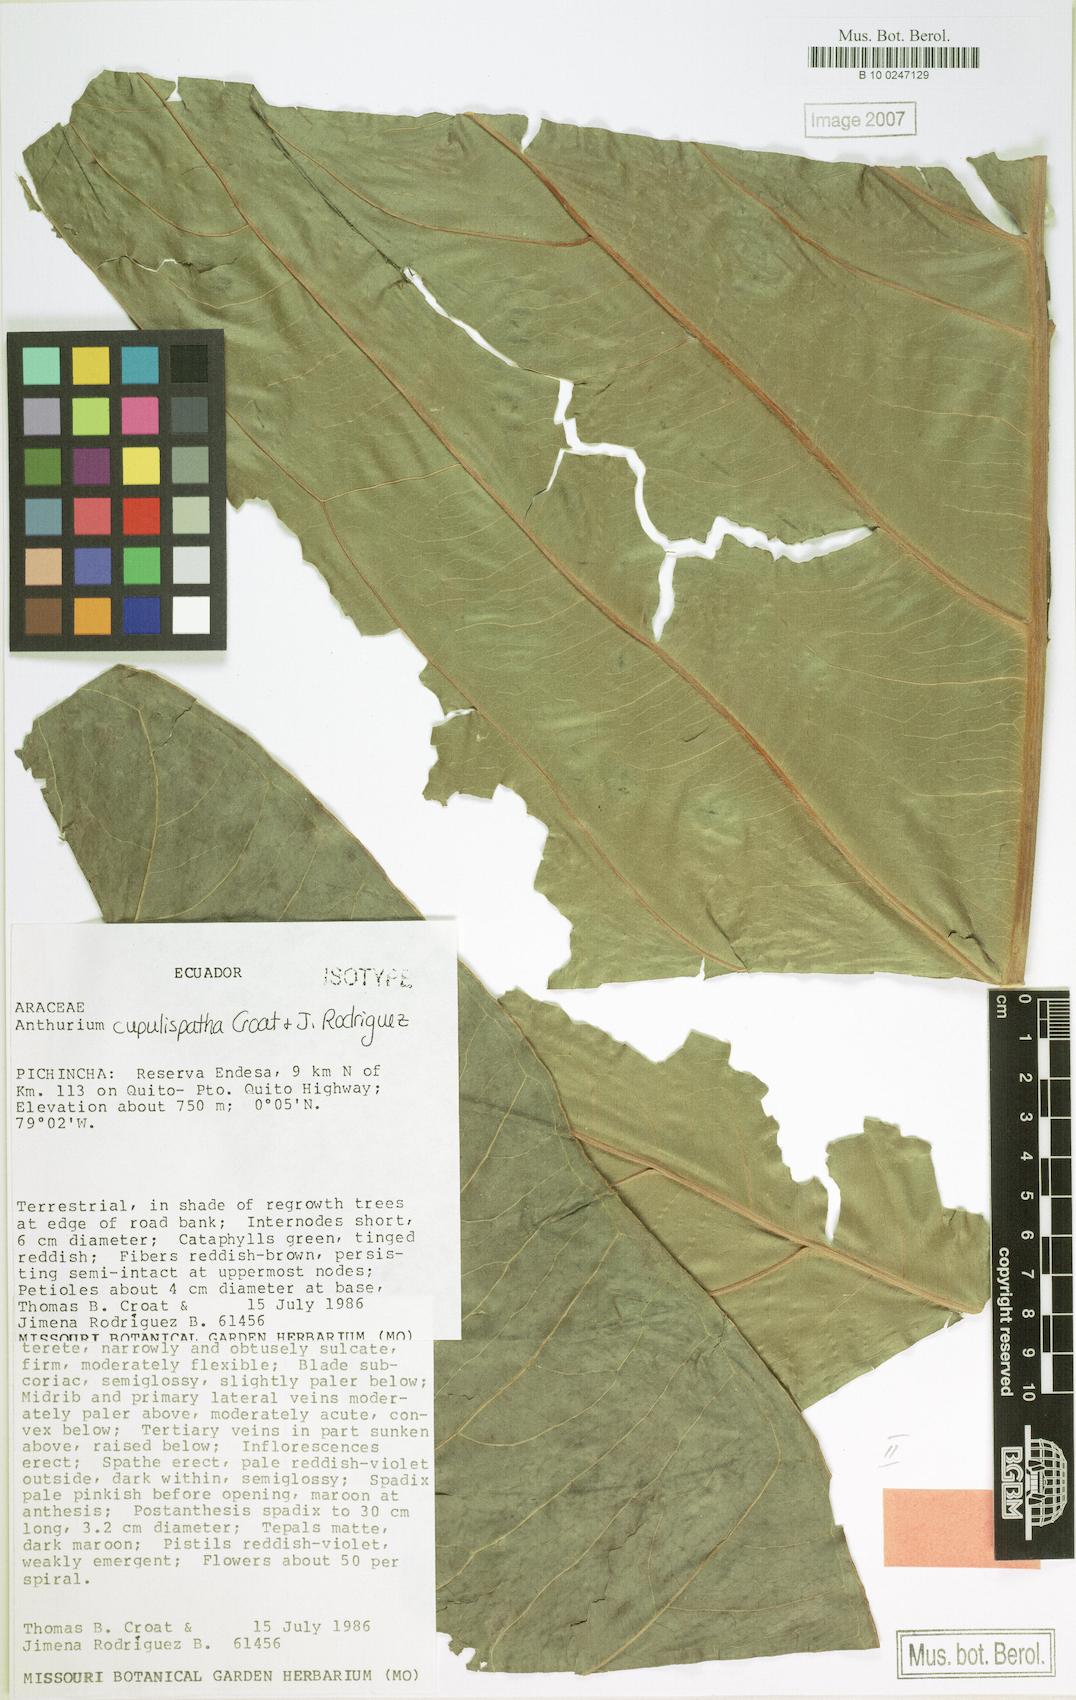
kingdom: Plantae
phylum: Tracheophyta
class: Liliopsida
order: Alismatales
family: Araceae
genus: Anthurium
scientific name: Anthurium cupulispathum
